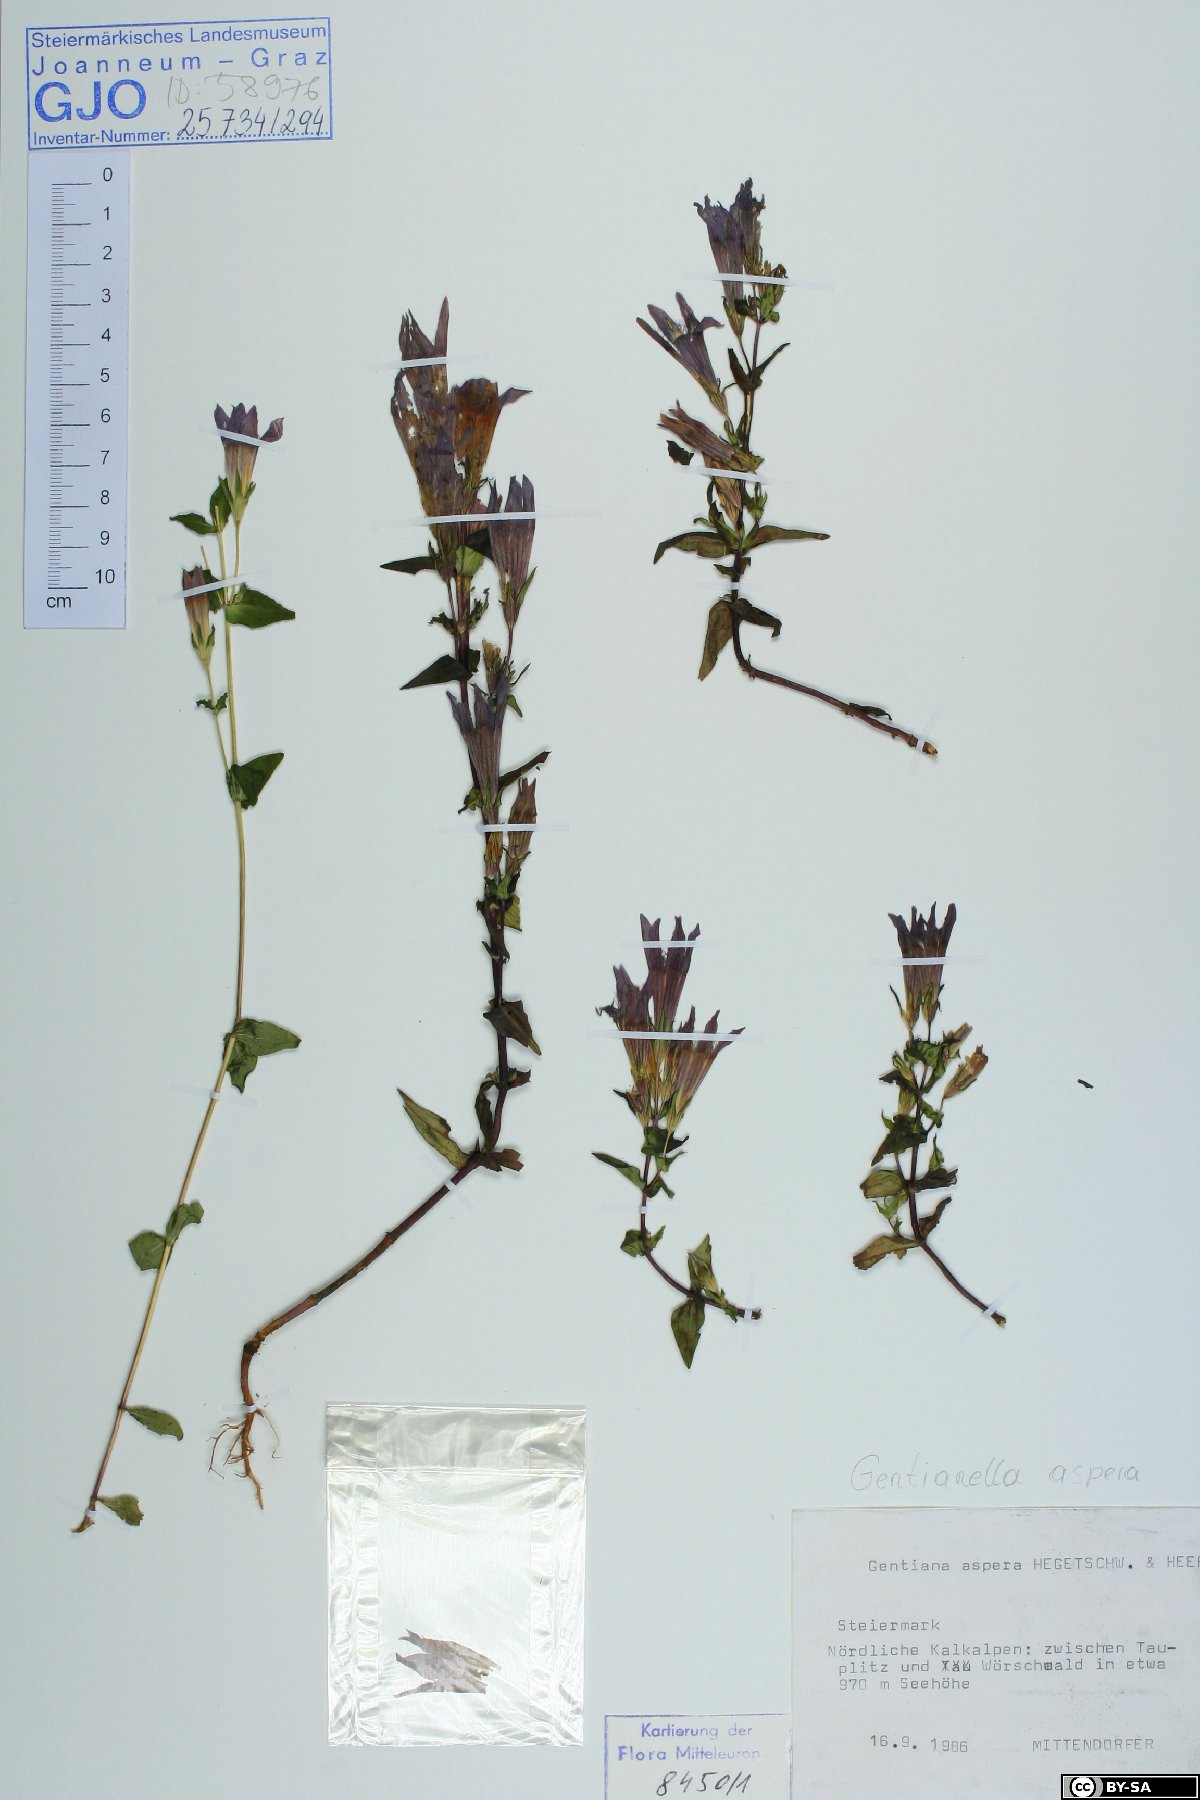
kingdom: Plantae
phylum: Tracheophyta
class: Magnoliopsida
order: Gentianales
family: Gentianaceae
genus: Gentianella
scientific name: Gentianella obtusifolia
